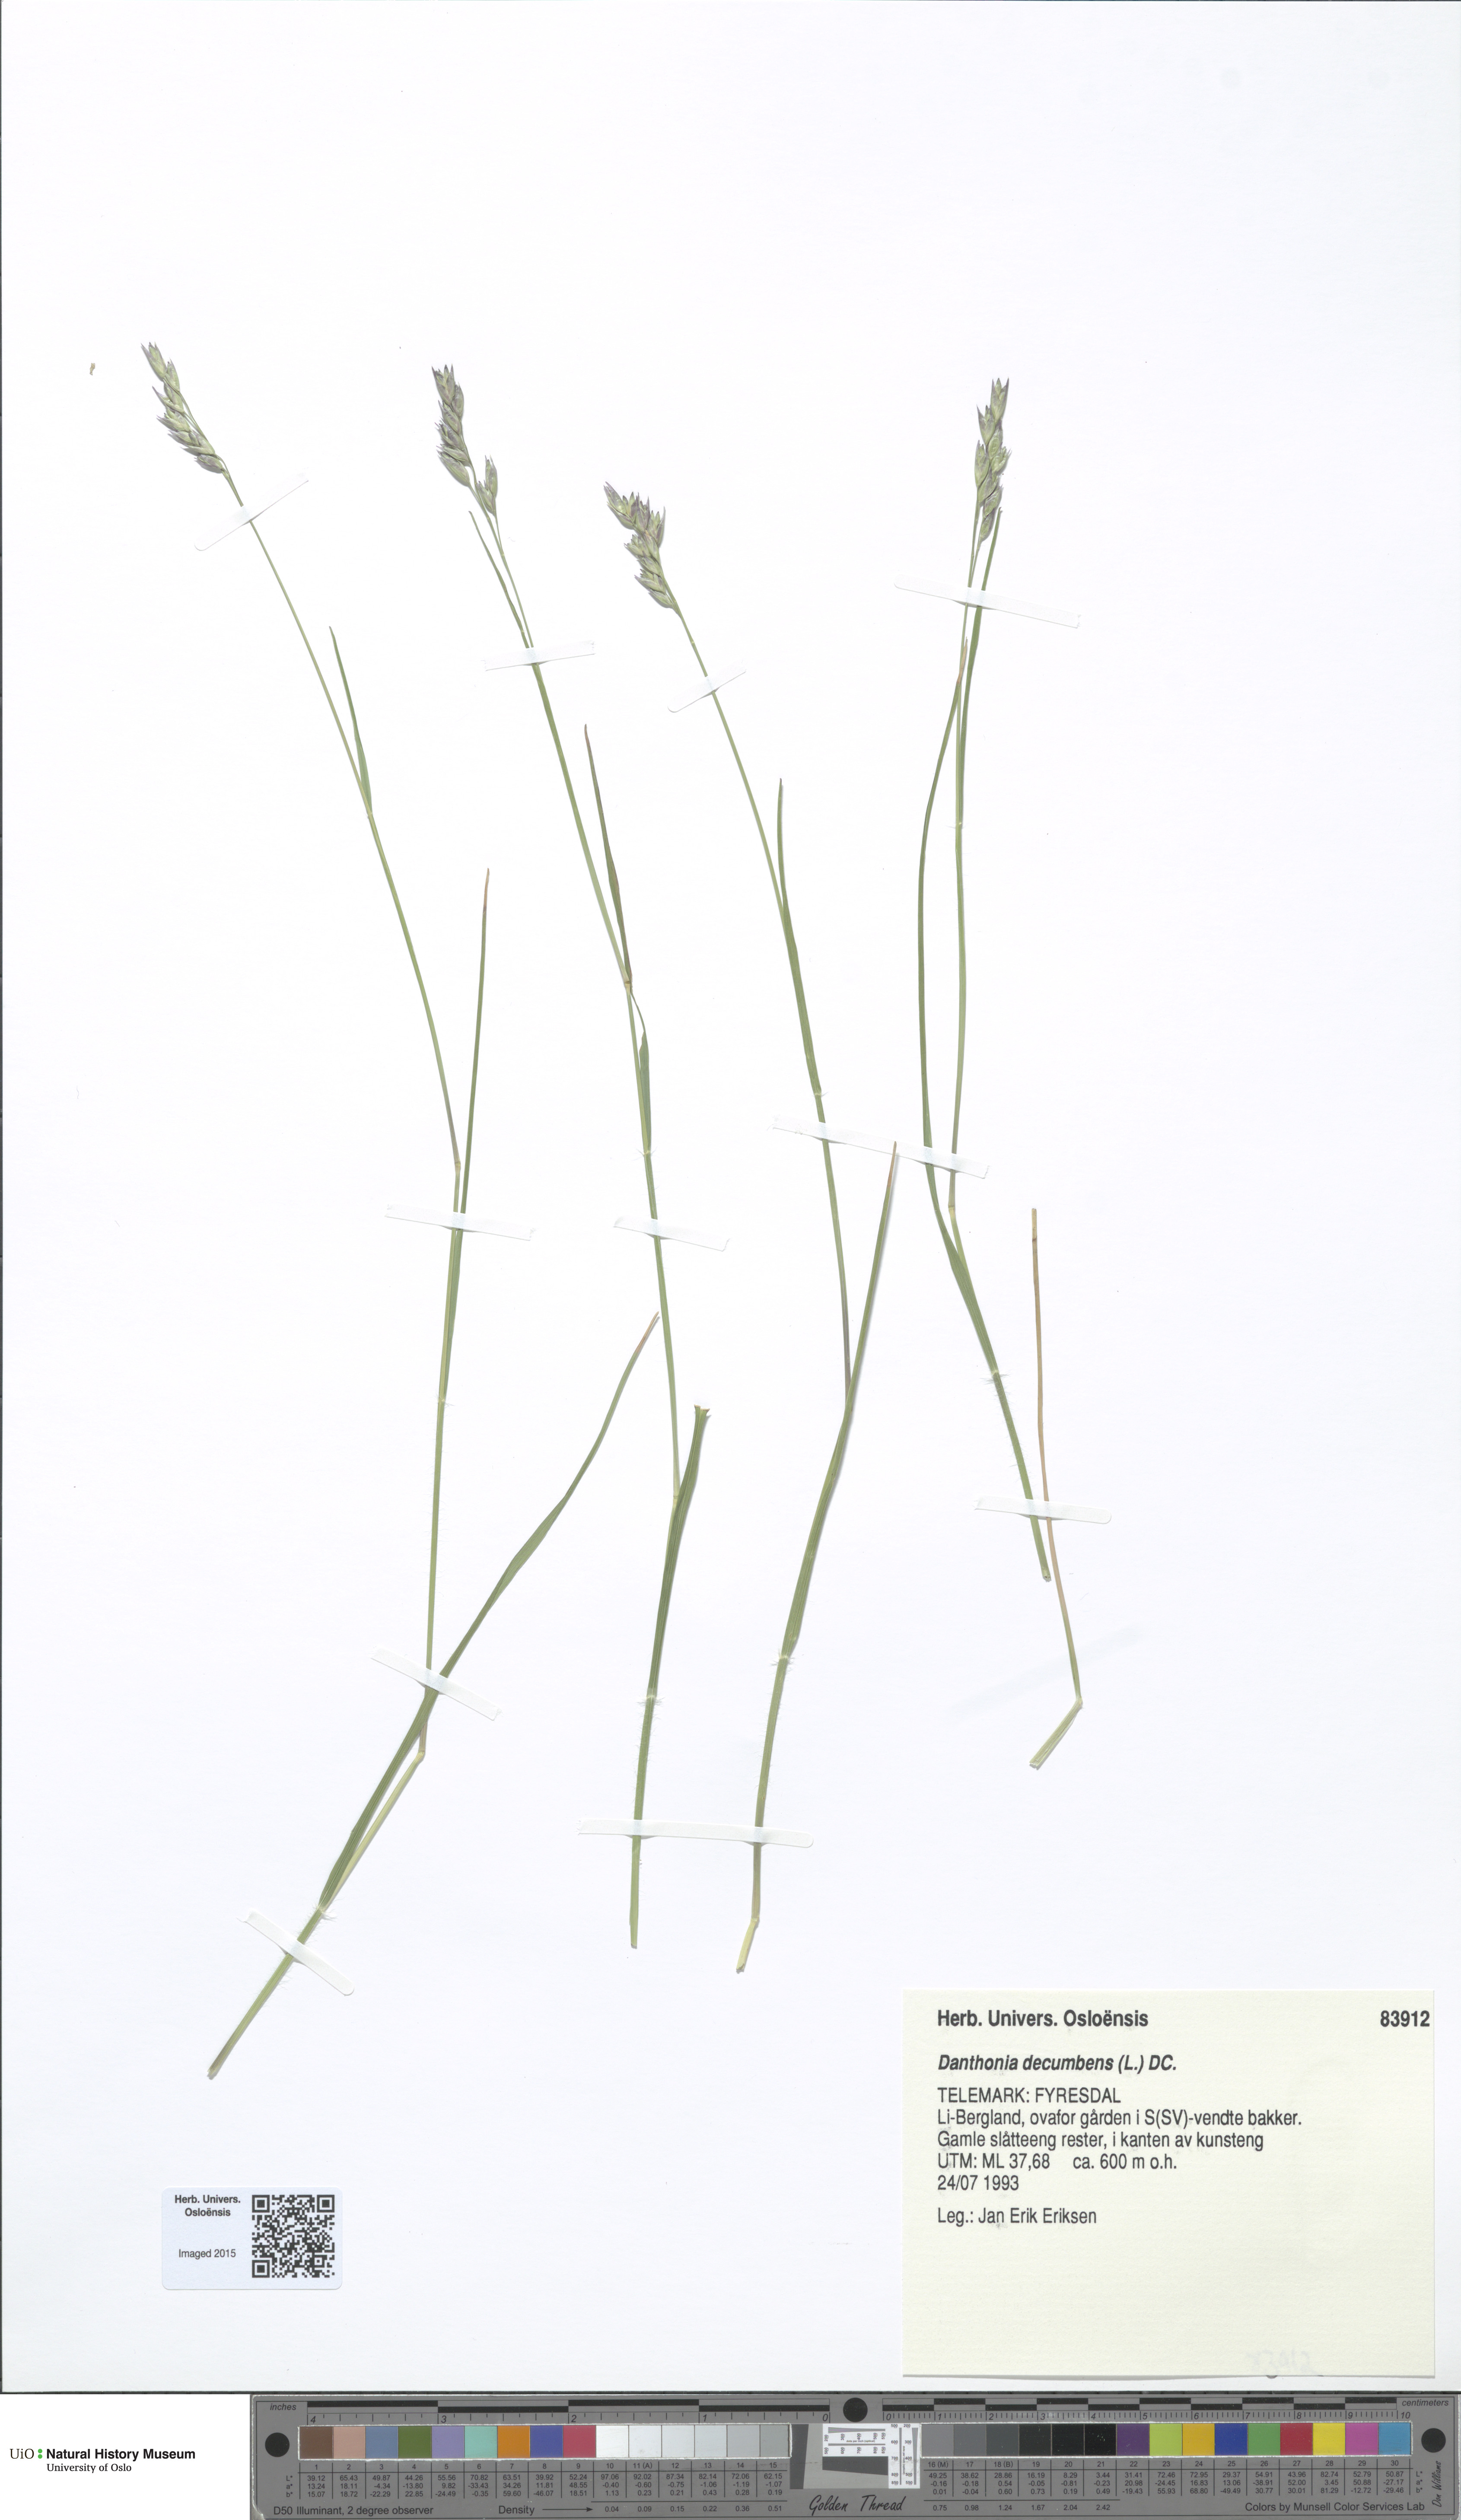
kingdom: Plantae
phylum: Tracheophyta
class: Liliopsida
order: Poales
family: Poaceae
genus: Danthonia
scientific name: Danthonia decumbens
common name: Common heathgrass
